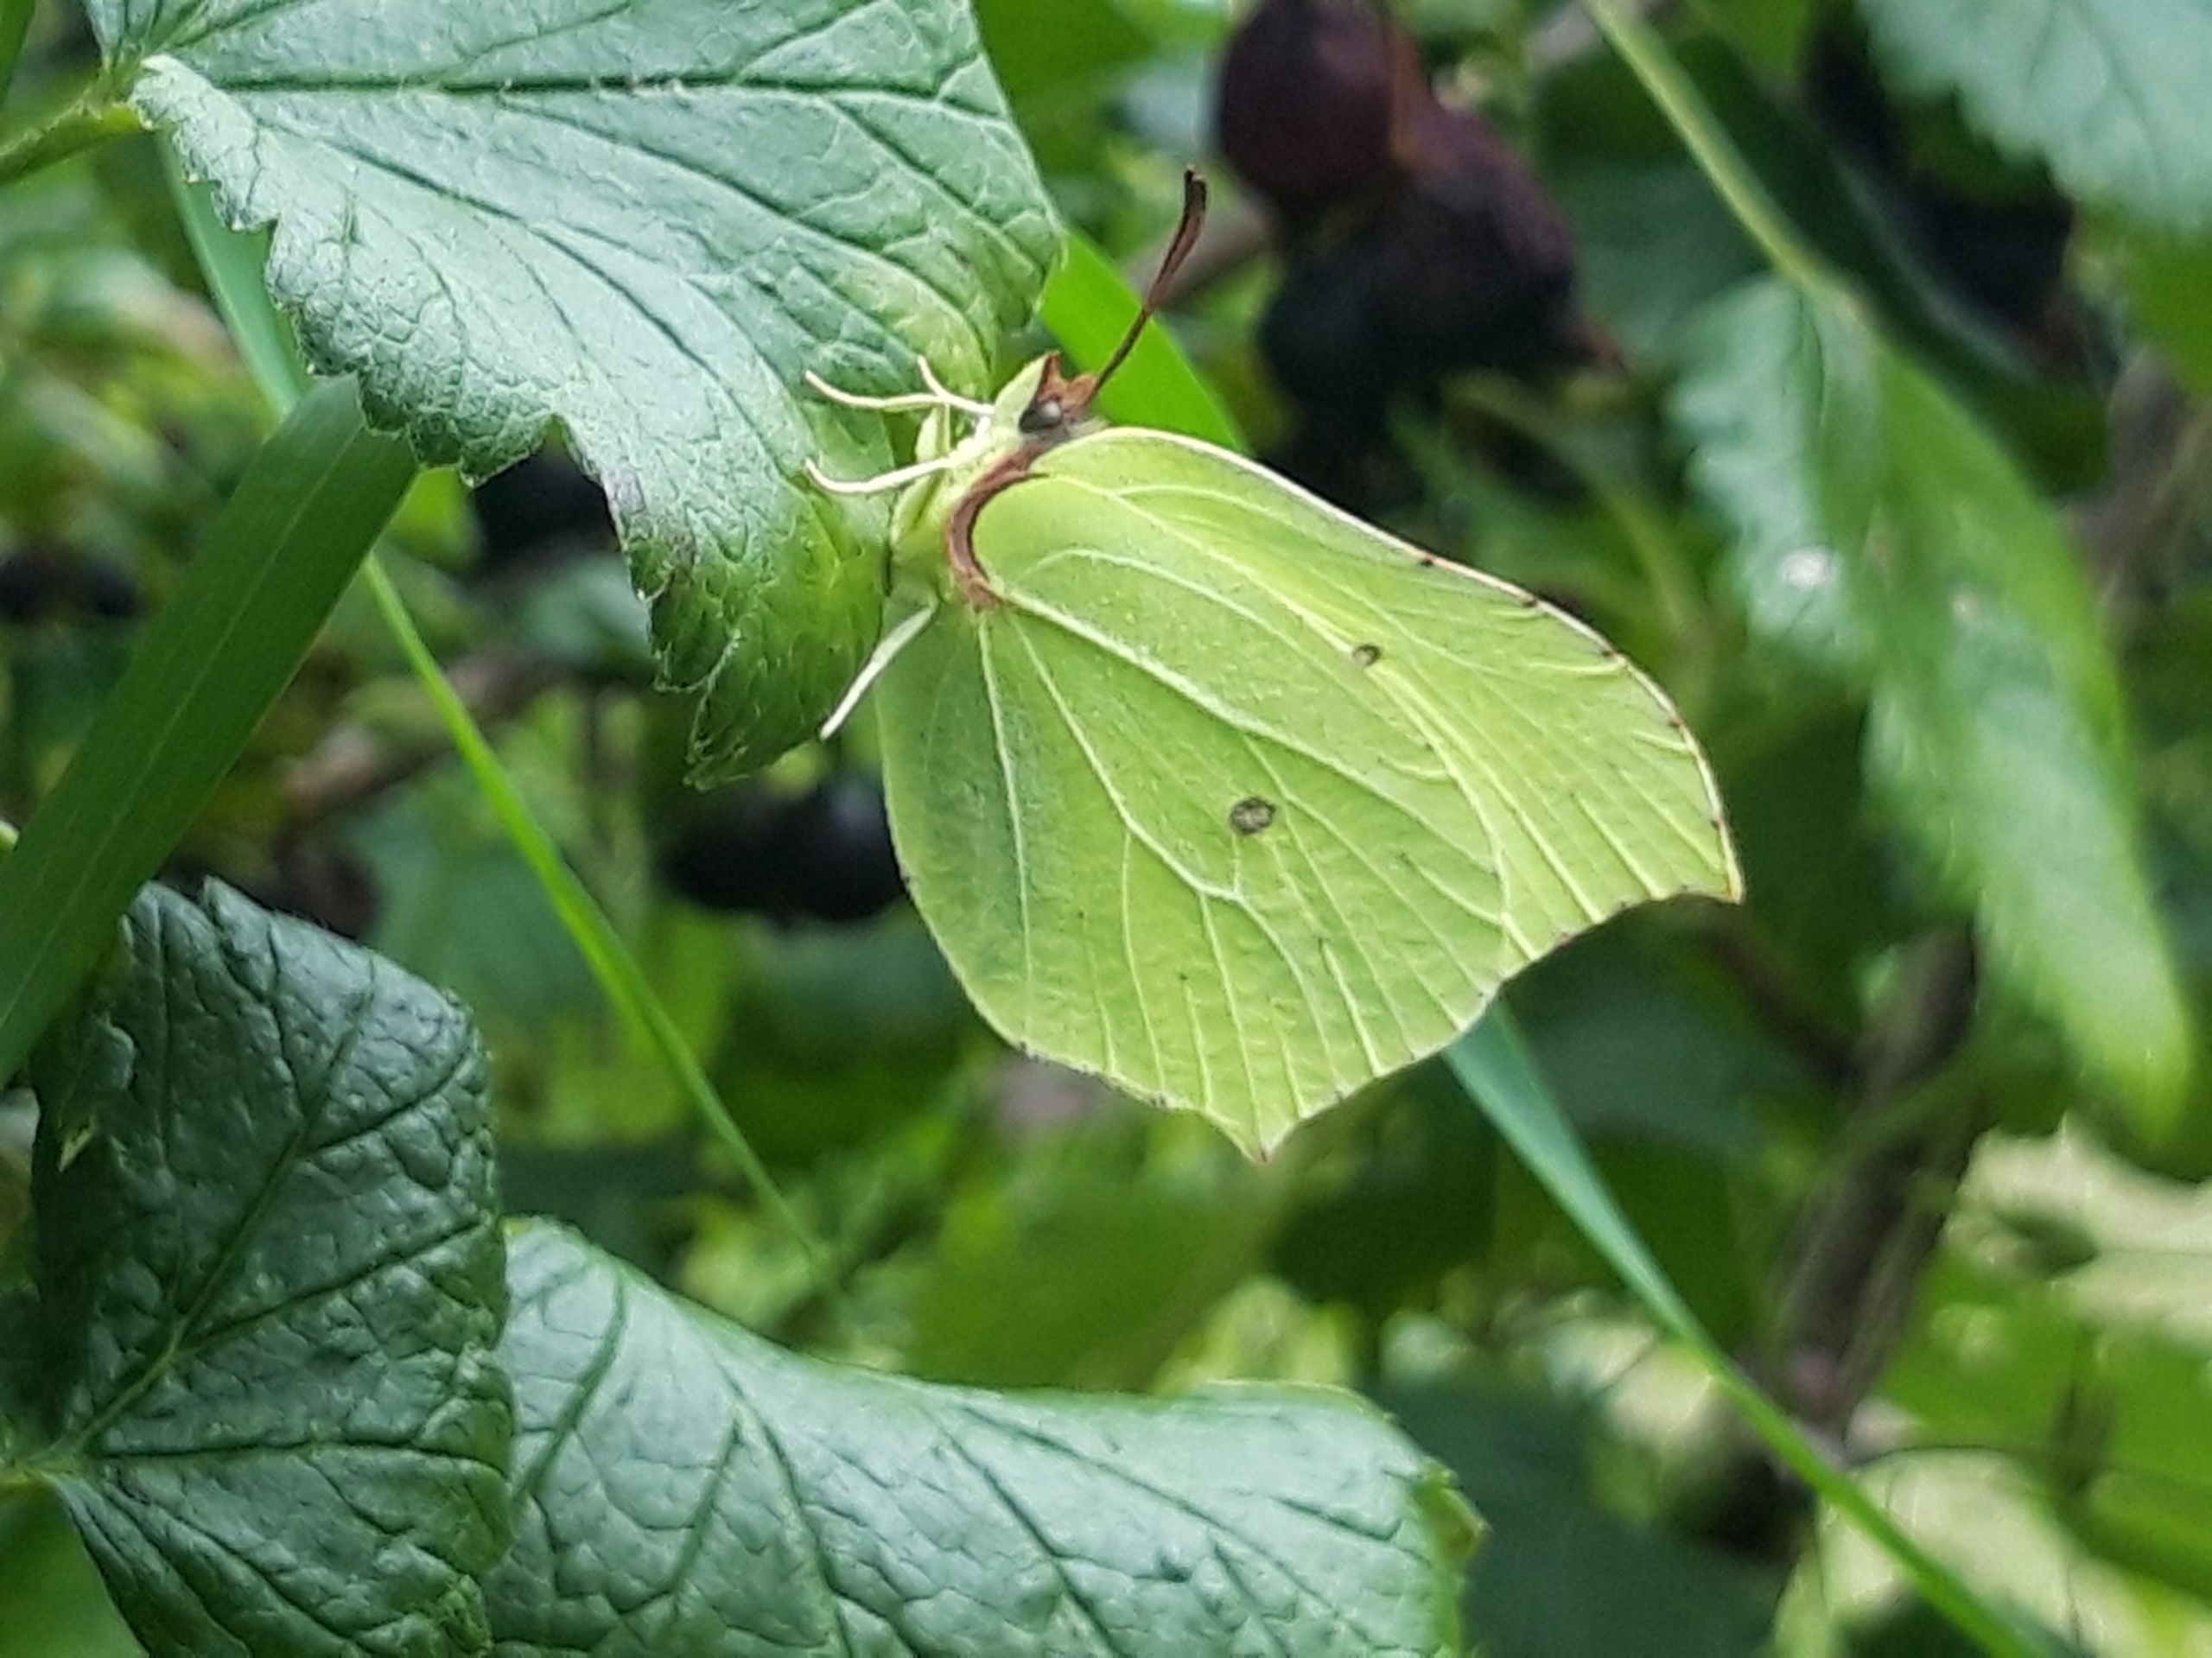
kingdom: Animalia
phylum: Arthropoda
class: Insecta
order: Lepidoptera
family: Pieridae
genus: Gonepteryx
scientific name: Gonepteryx rhamni
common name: Citronsommerfugl
